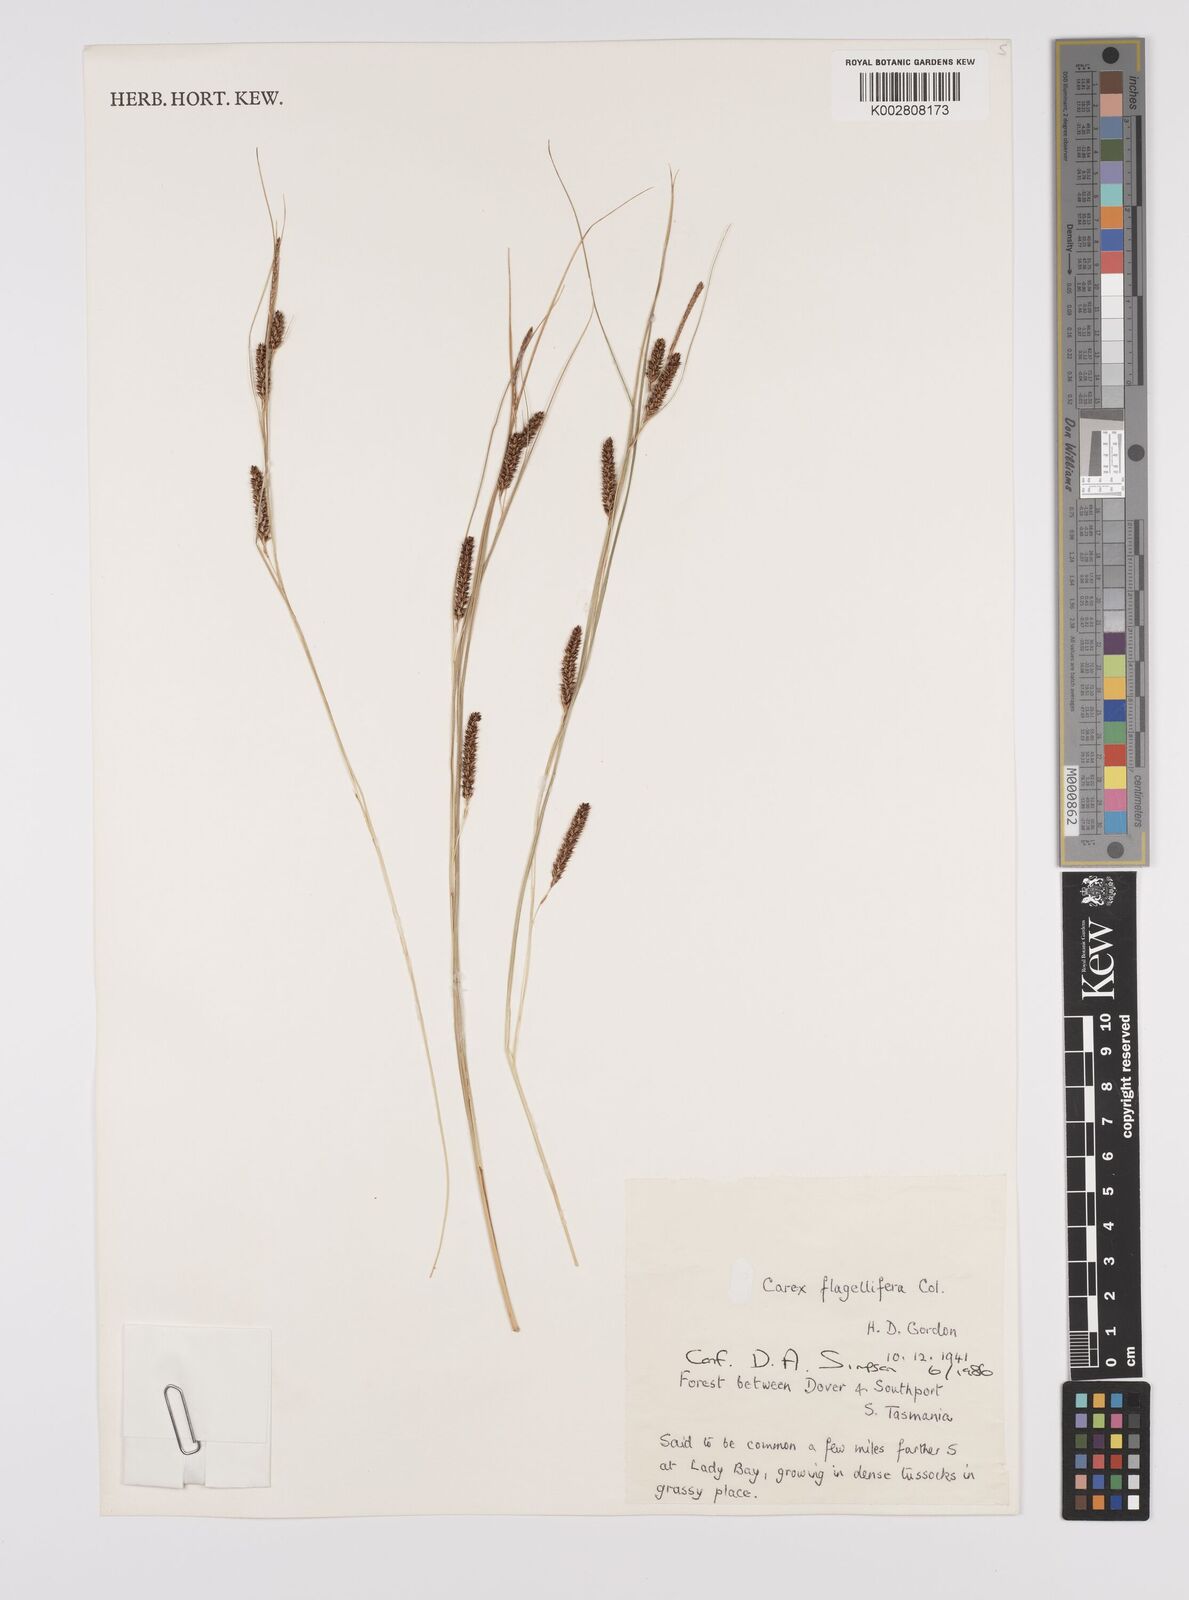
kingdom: Plantae
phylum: Tracheophyta
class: Liliopsida
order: Poales
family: Cyperaceae
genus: Carex
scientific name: Carex flagellifera
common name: Glen murray tussock
